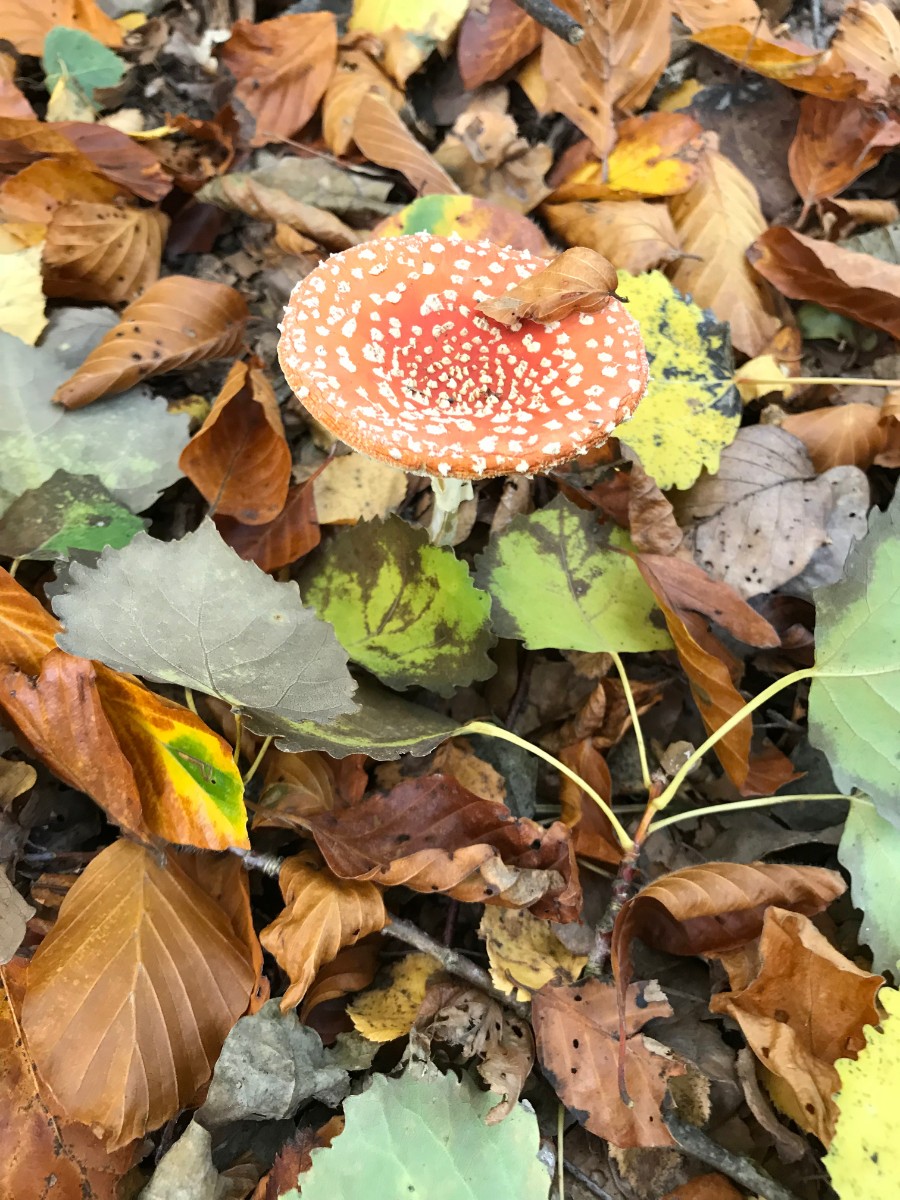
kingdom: Fungi
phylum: Basidiomycota
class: Agaricomycetes
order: Agaricales
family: Amanitaceae
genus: Amanita
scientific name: Amanita muscaria
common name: rød fluesvamp
